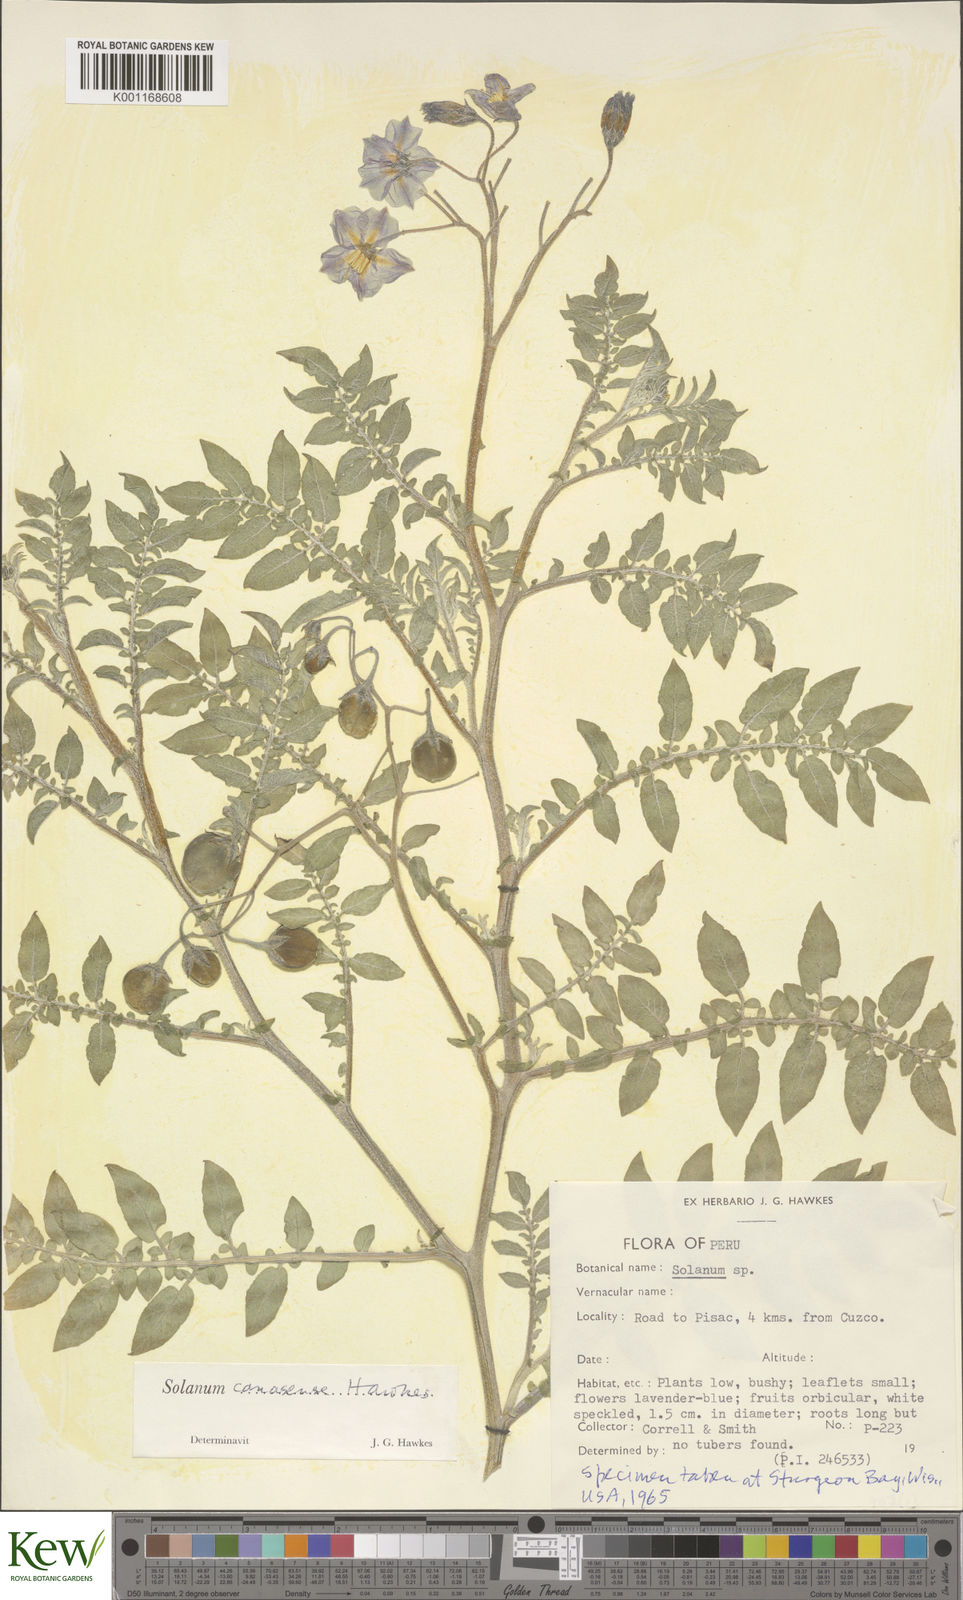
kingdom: Plantae
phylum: Tracheophyta
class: Magnoliopsida
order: Solanales
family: Solanaceae
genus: Solanum
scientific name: Solanum candolleanum
